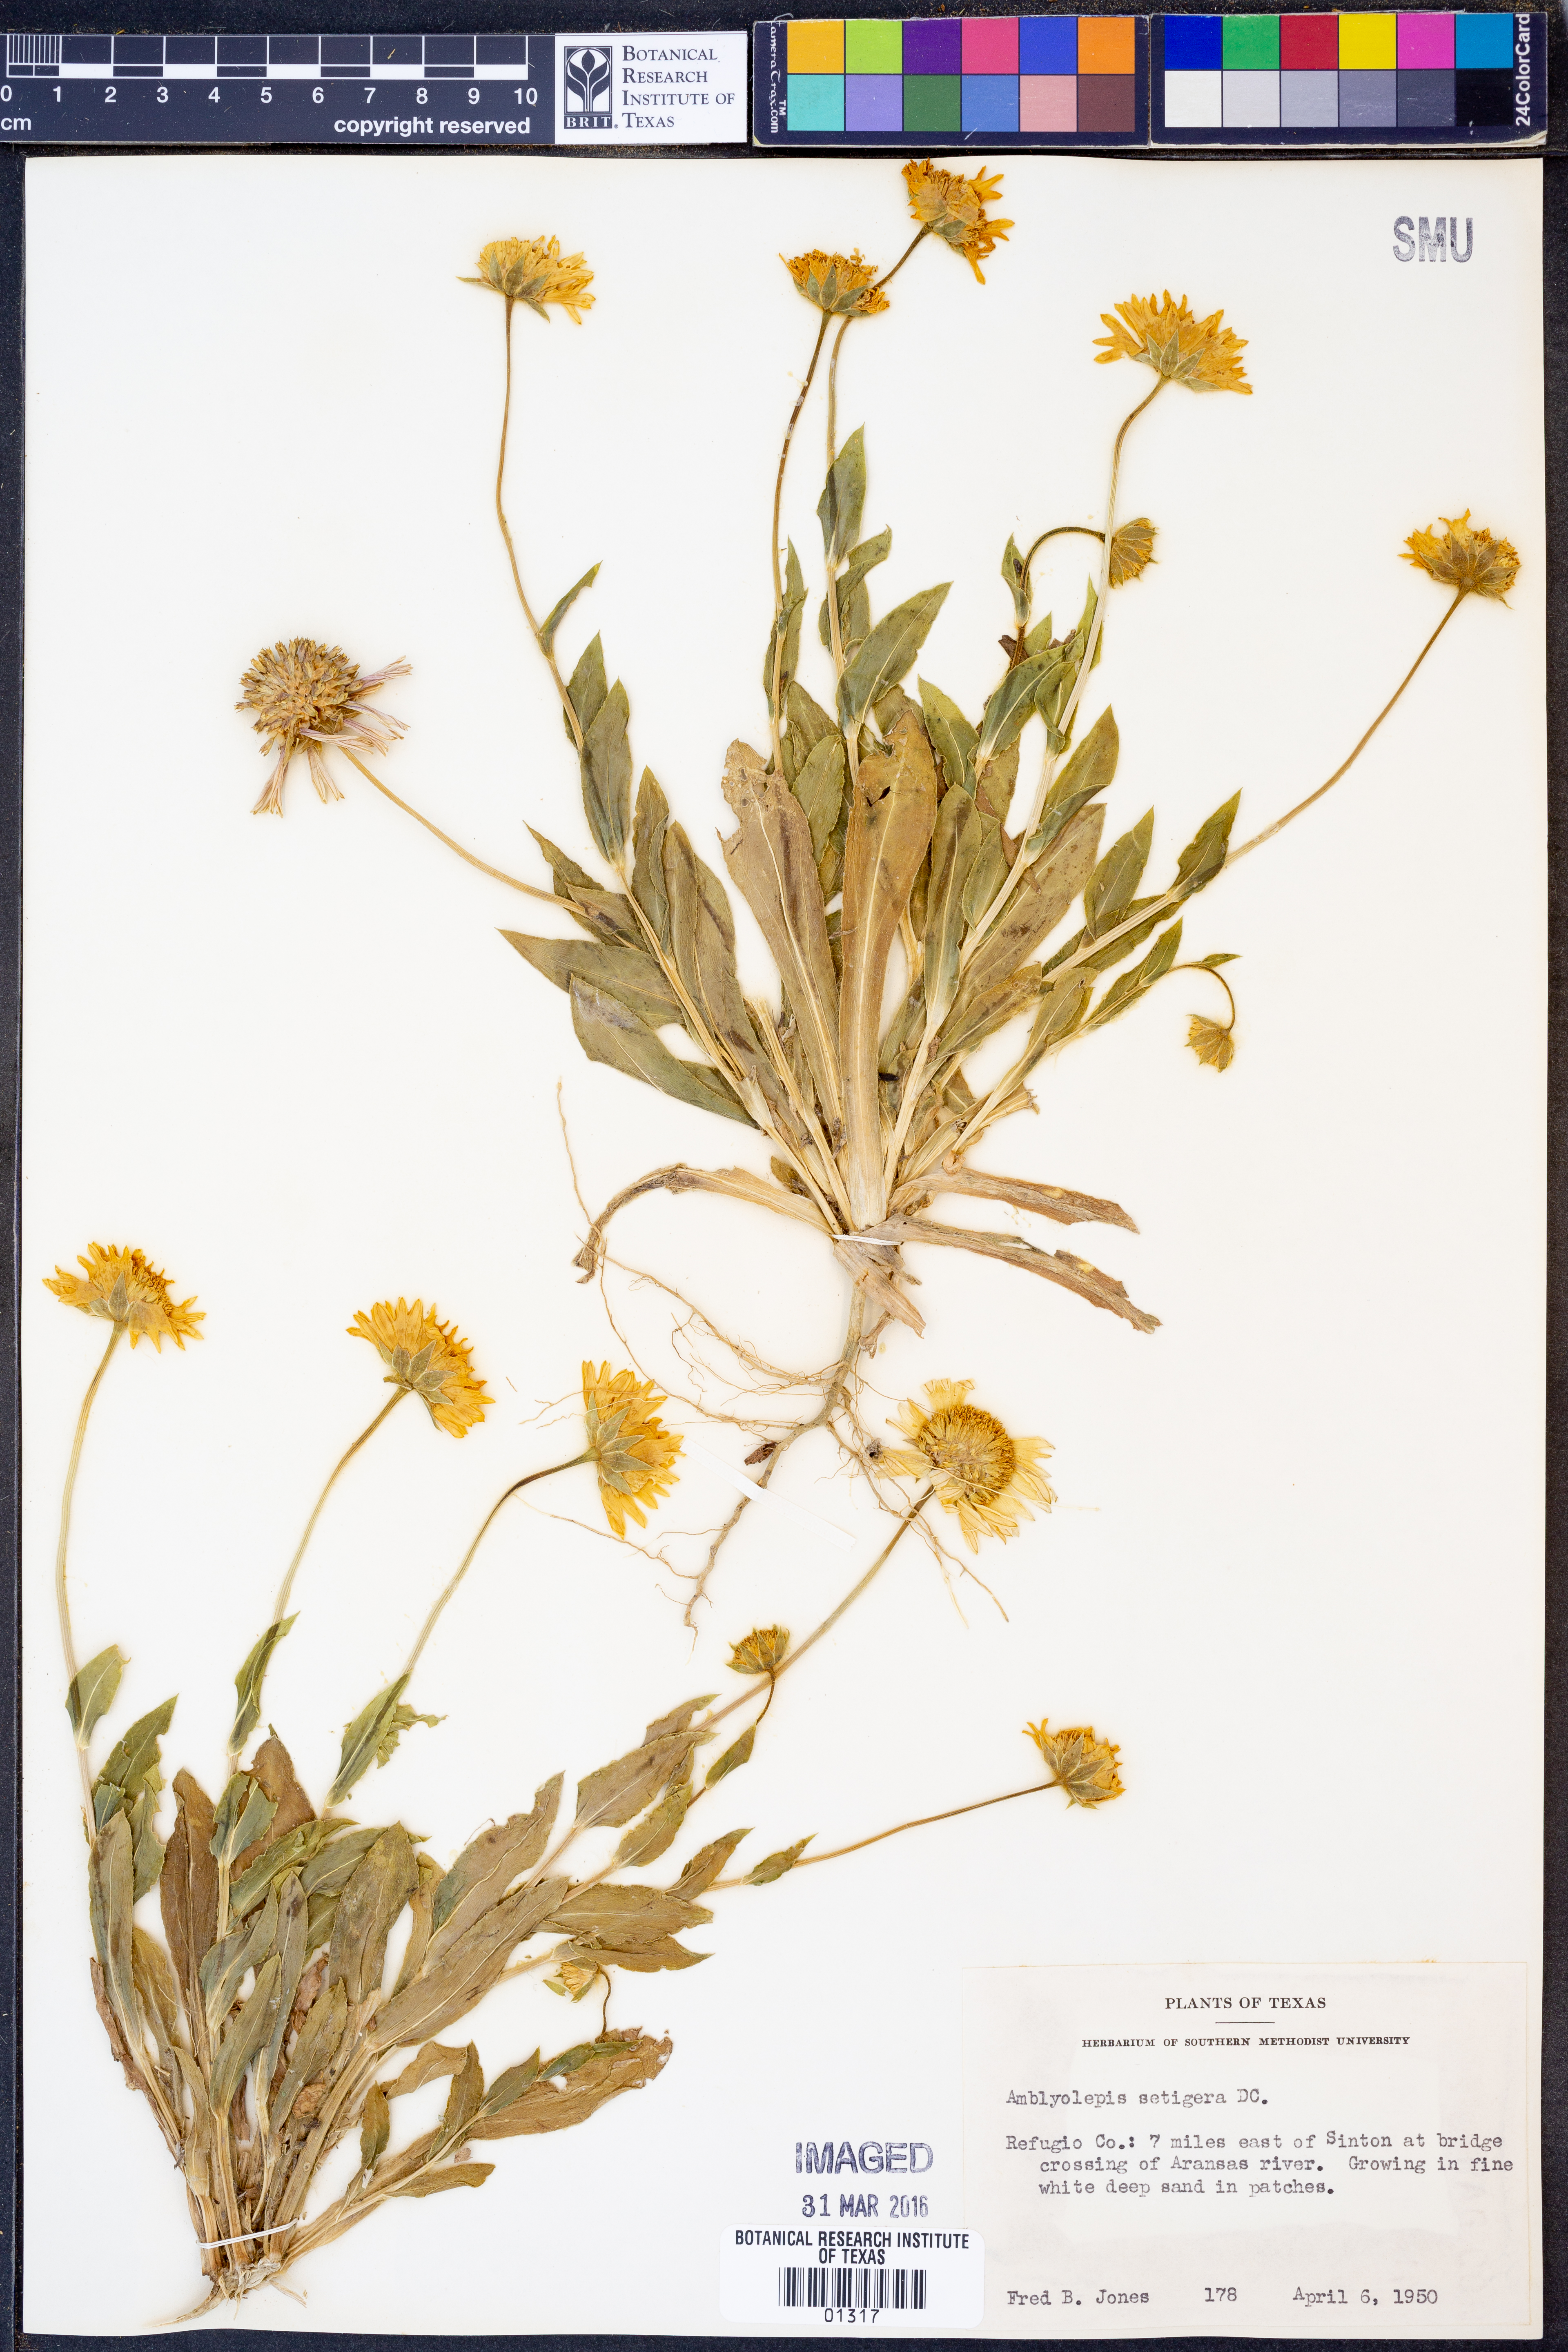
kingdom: Plantae
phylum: Tracheophyta
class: Magnoliopsida
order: Asterales
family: Asteraceae
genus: Amblyolepis
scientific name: Amblyolepis setigera
